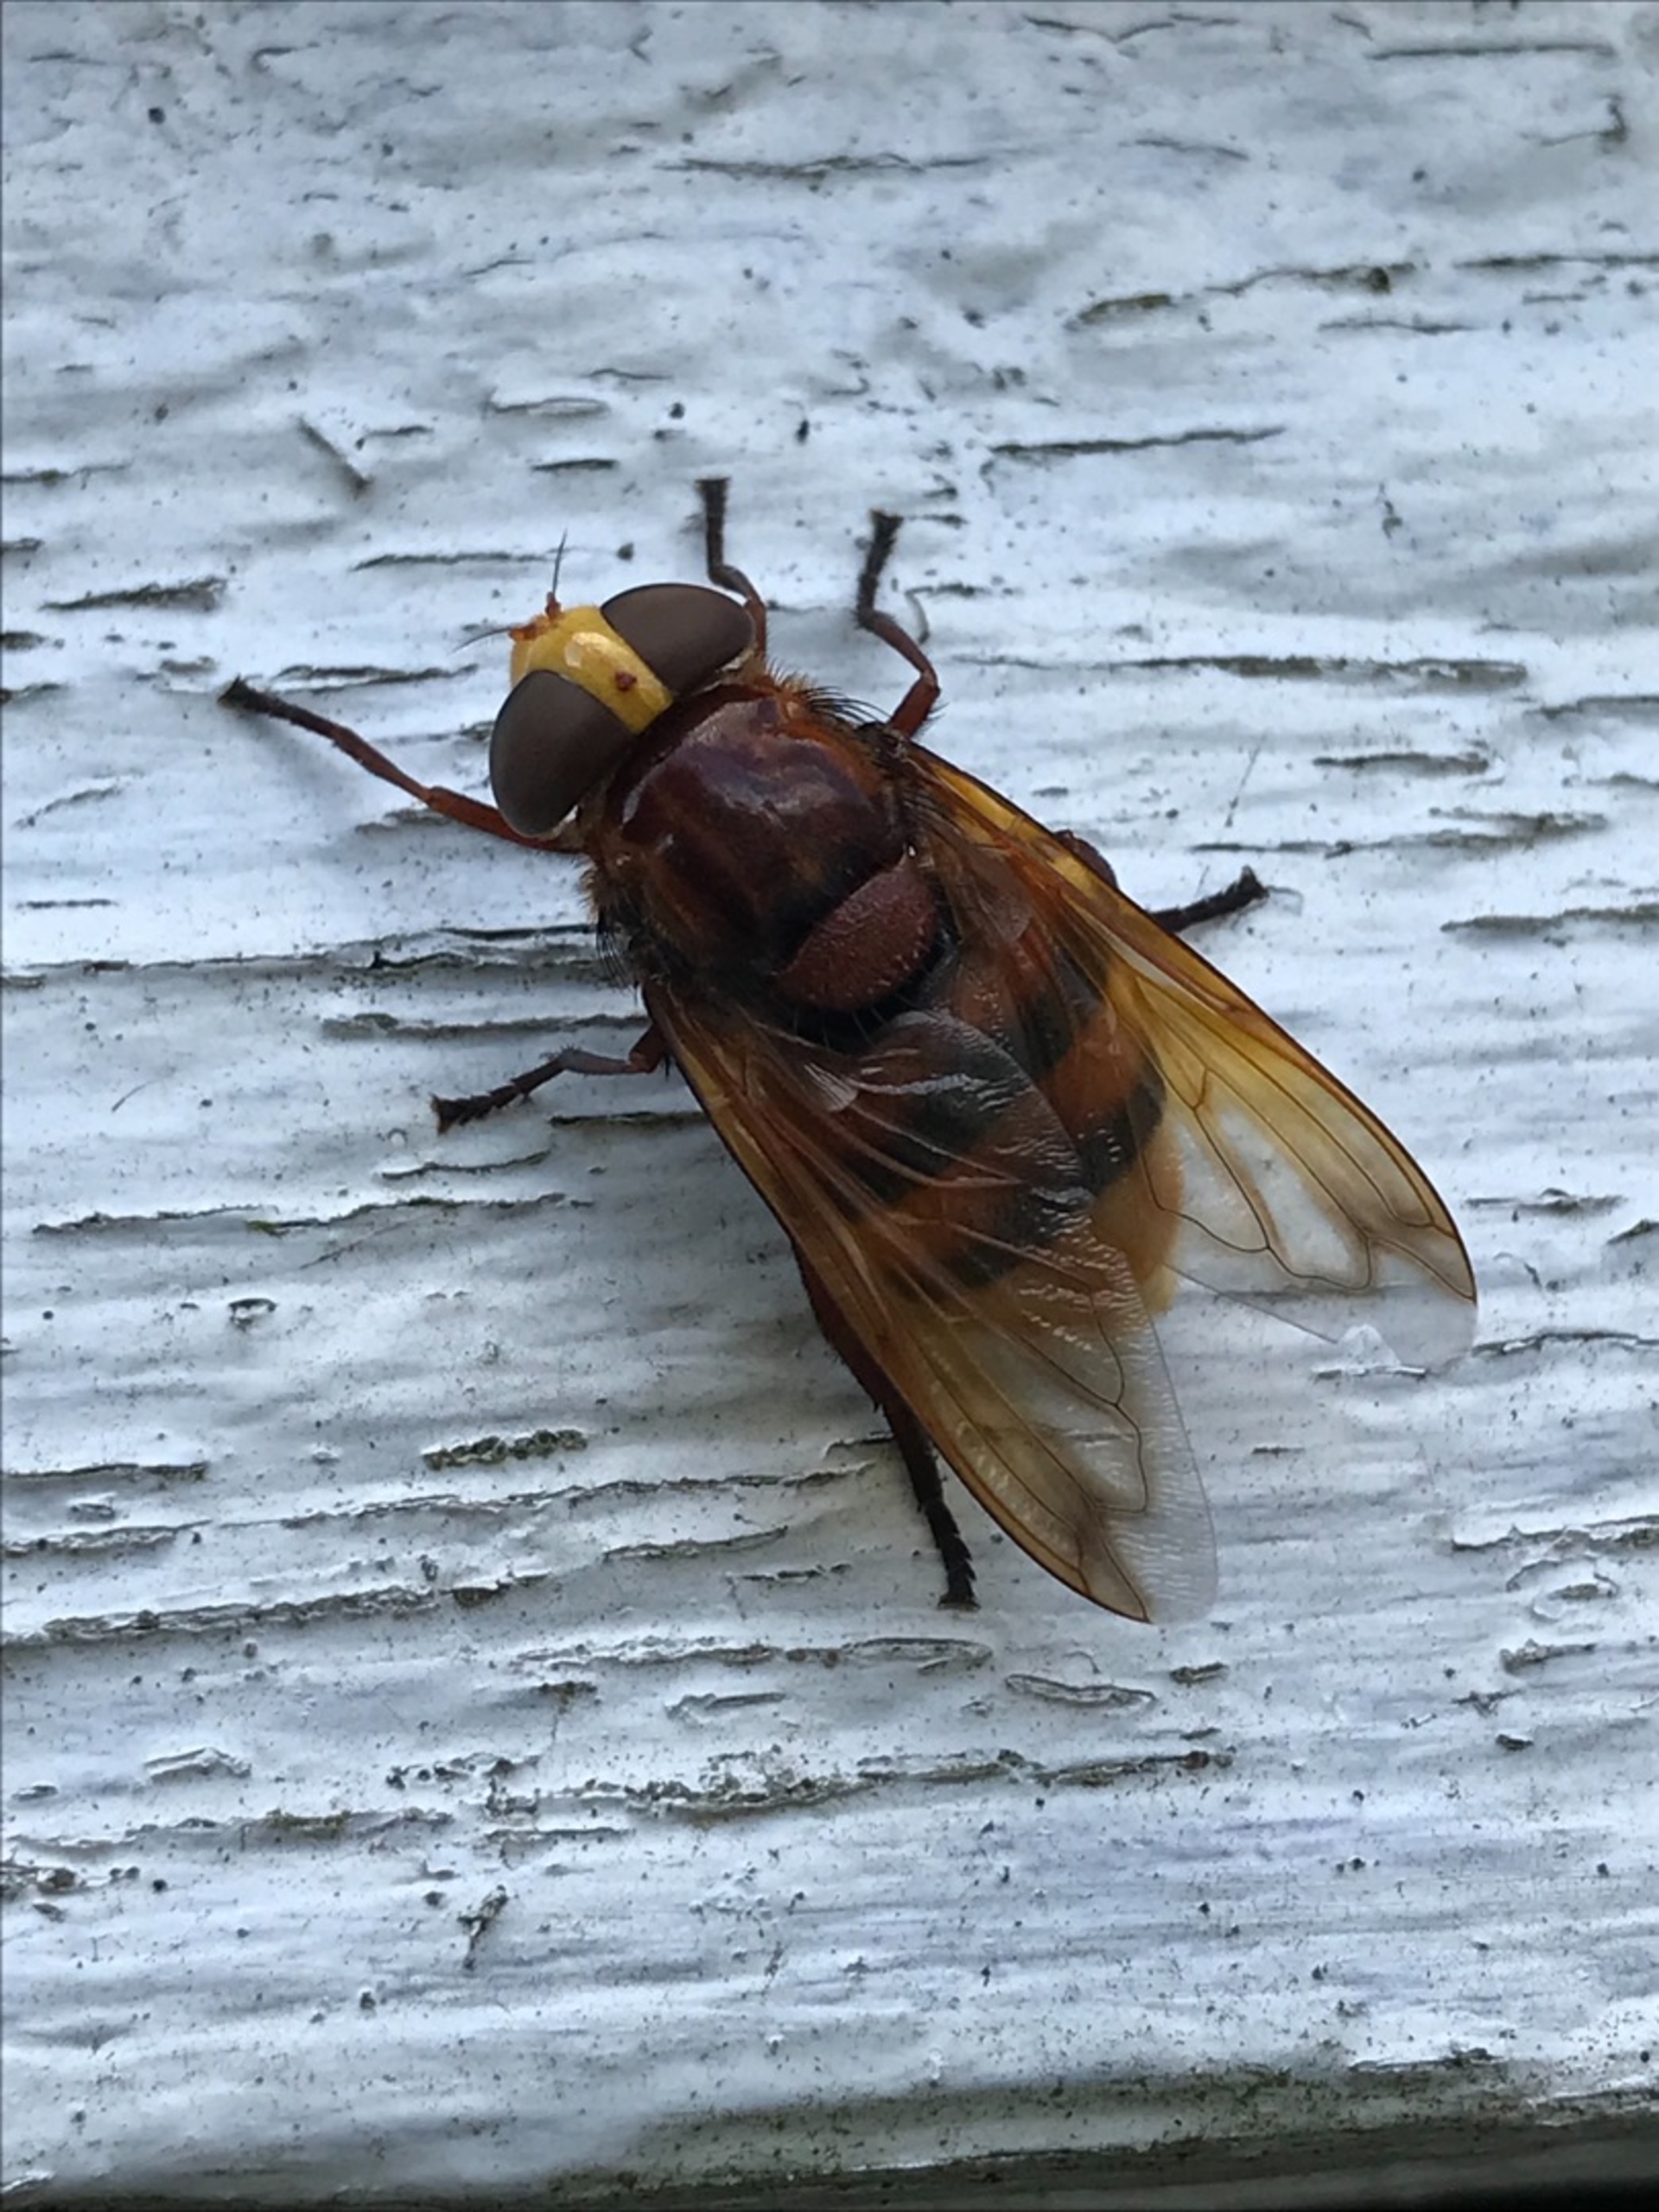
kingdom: Animalia
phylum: Arthropoda
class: Insecta
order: Diptera
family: Syrphidae
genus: Volucella
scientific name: Volucella zonaria
